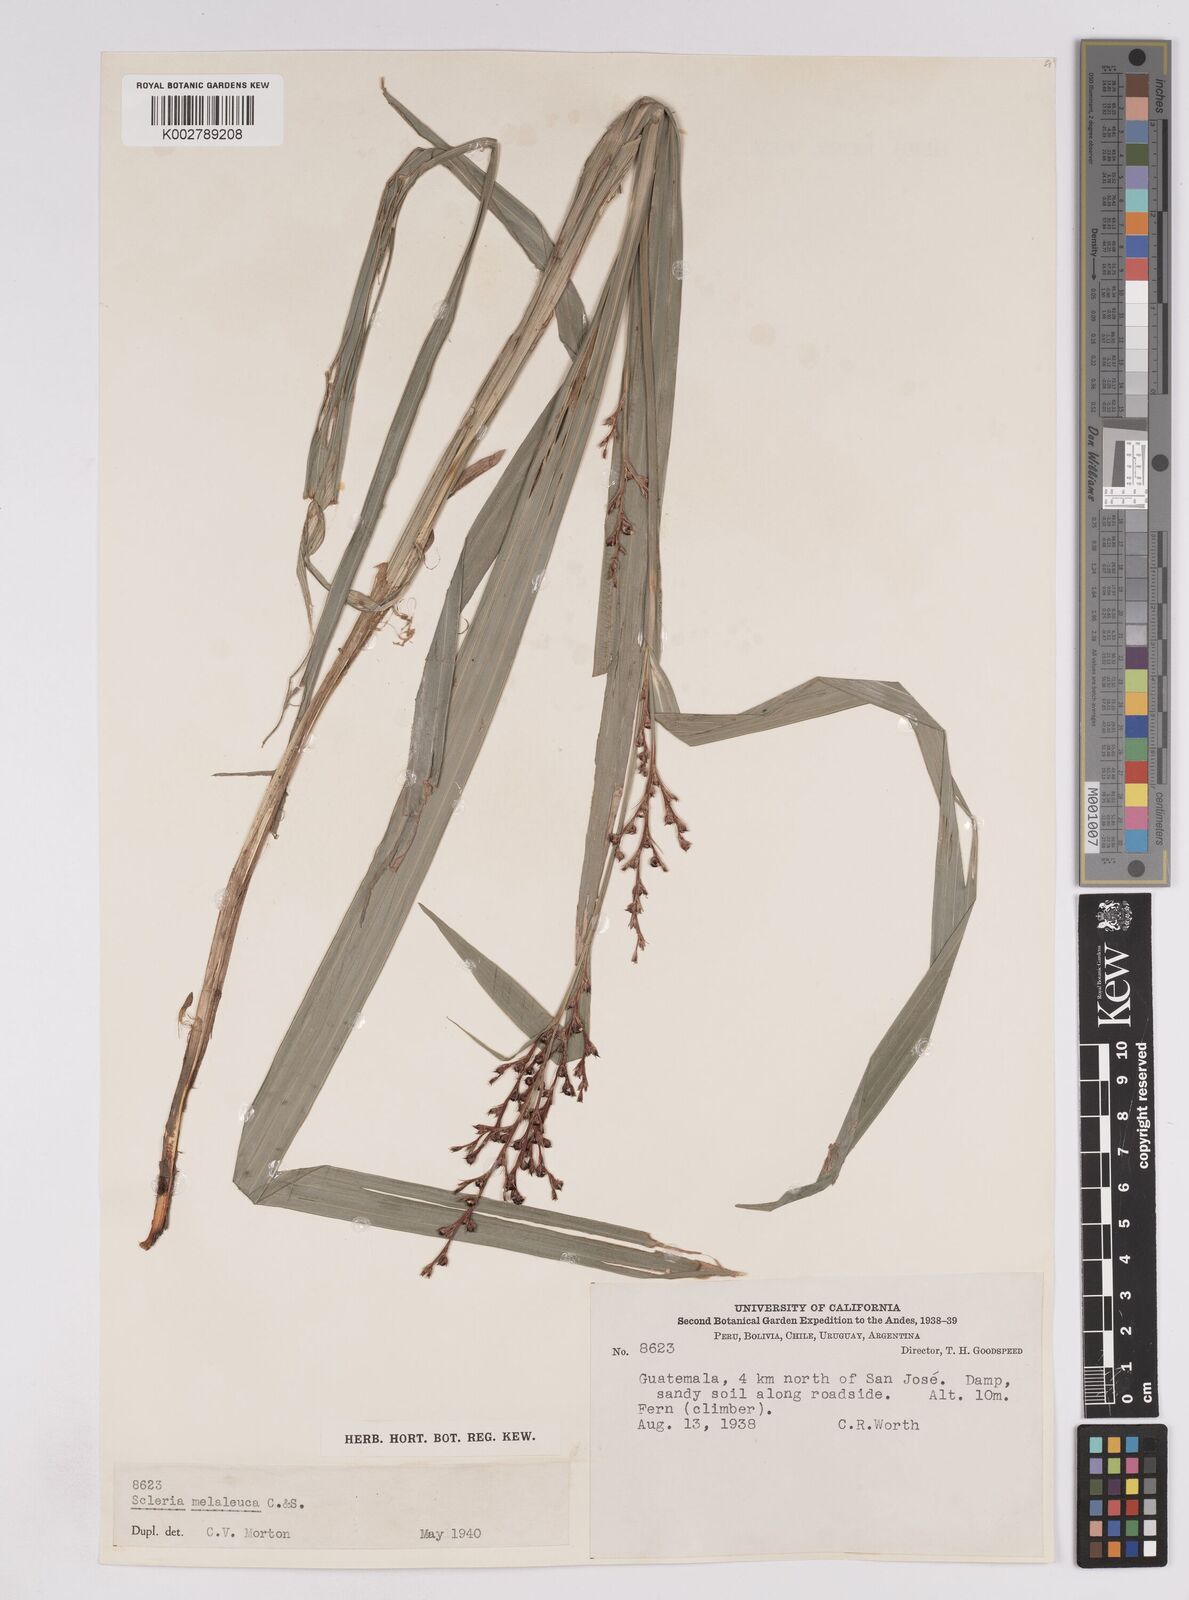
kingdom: Plantae
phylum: Tracheophyta
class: Liliopsida
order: Poales
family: Cyperaceae
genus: Scleria
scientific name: Scleria gaertneri
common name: Cortadera blanca
